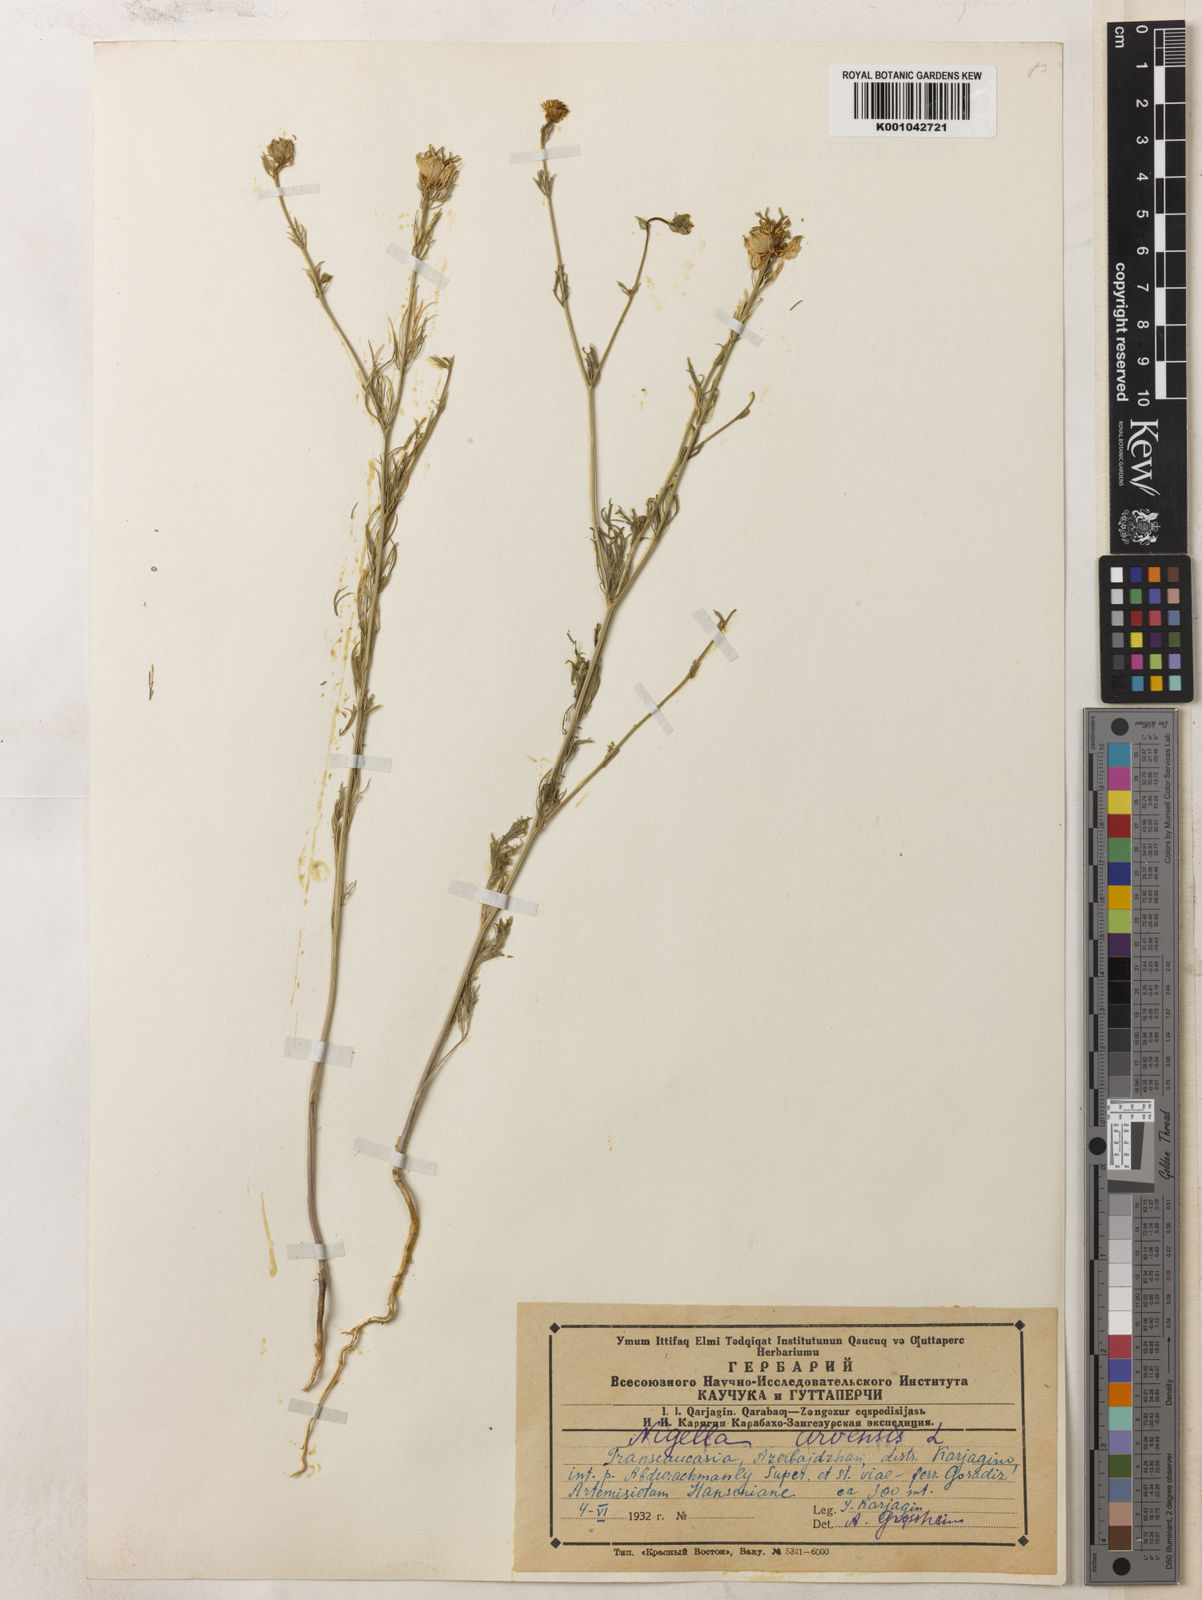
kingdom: Plantae
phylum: Tracheophyta
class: Magnoliopsida
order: Ranunculales
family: Ranunculaceae
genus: Nigella
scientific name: Nigella arvensis
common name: Wild fennel-flower
